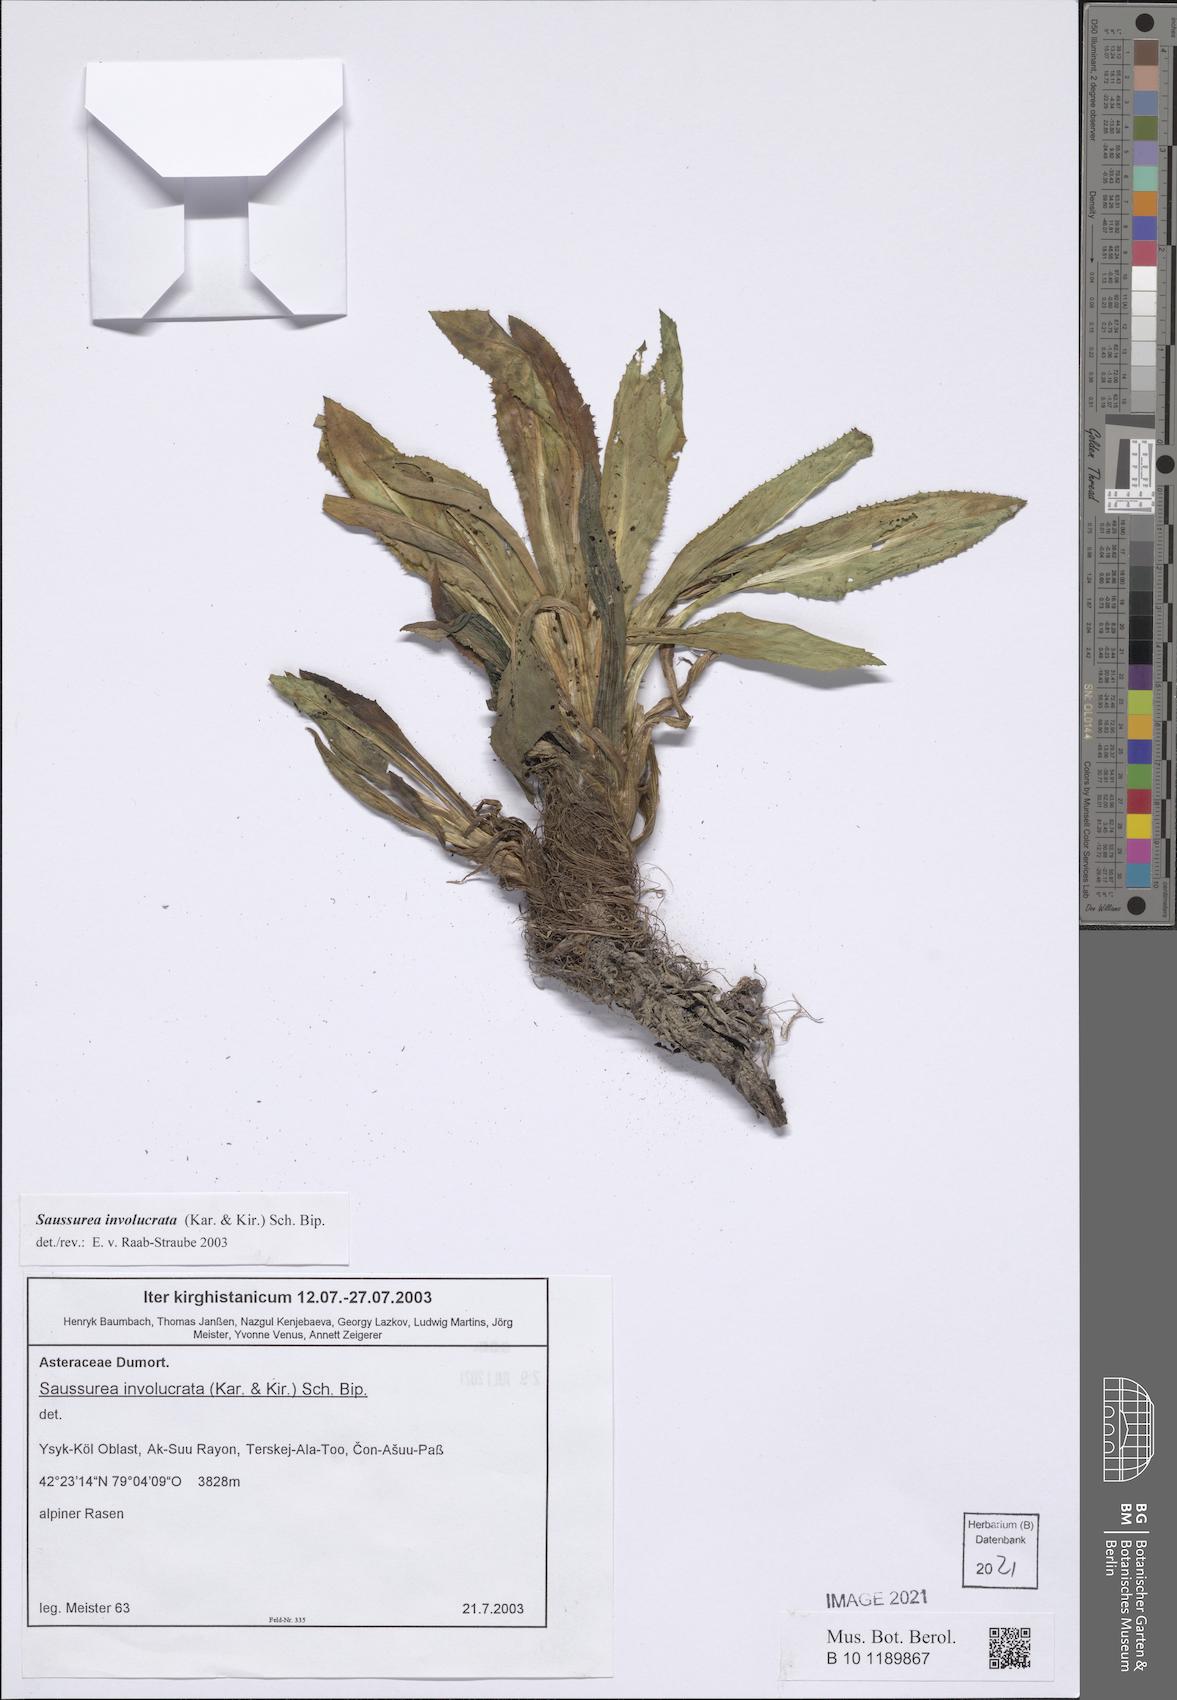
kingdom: Plantae
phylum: Tracheophyta
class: Magnoliopsida
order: Asterales
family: Asteraceae
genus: Saussurea
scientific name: Saussurea involucrata
